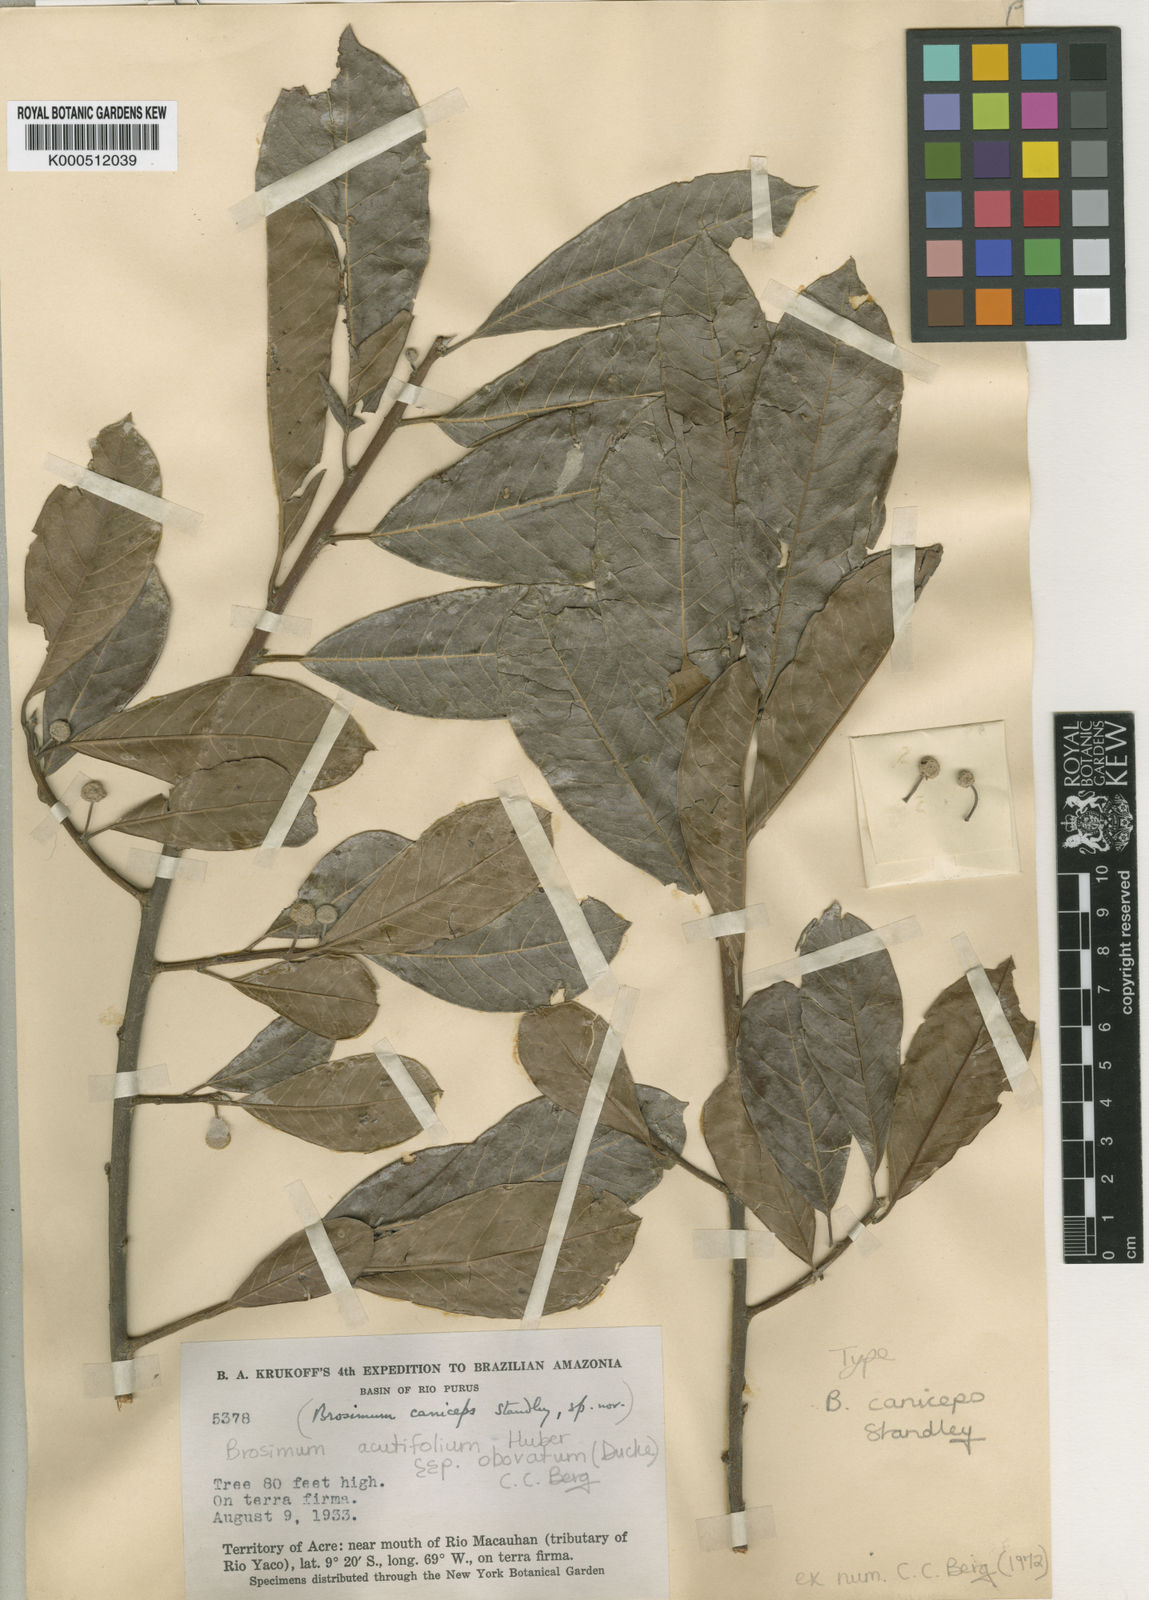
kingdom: Plantae
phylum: Tracheophyta
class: Magnoliopsida
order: Rosales
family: Moraceae
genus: Brosimum
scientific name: Brosimum acutifolium
